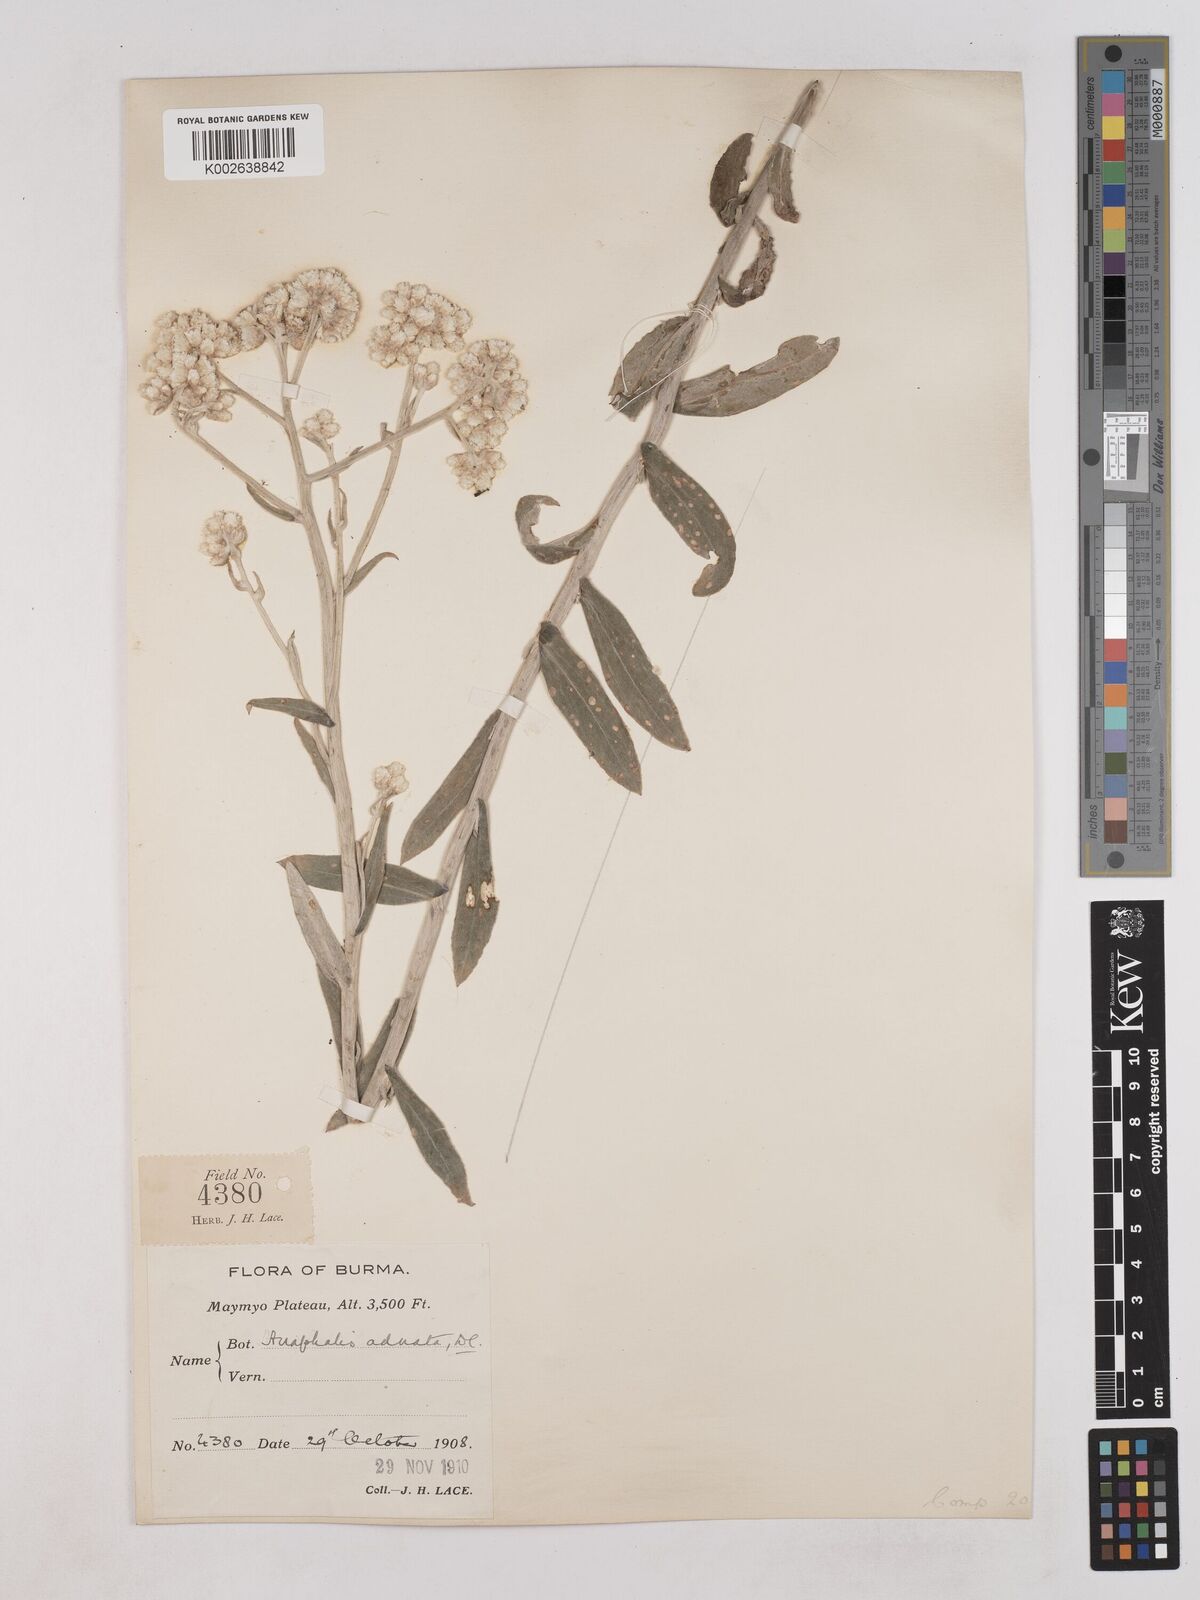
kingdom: Plantae
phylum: Tracheophyta
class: Magnoliopsida
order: Asterales
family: Asteraceae
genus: Pseudognaphalium
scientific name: Pseudognaphalium adnatum
